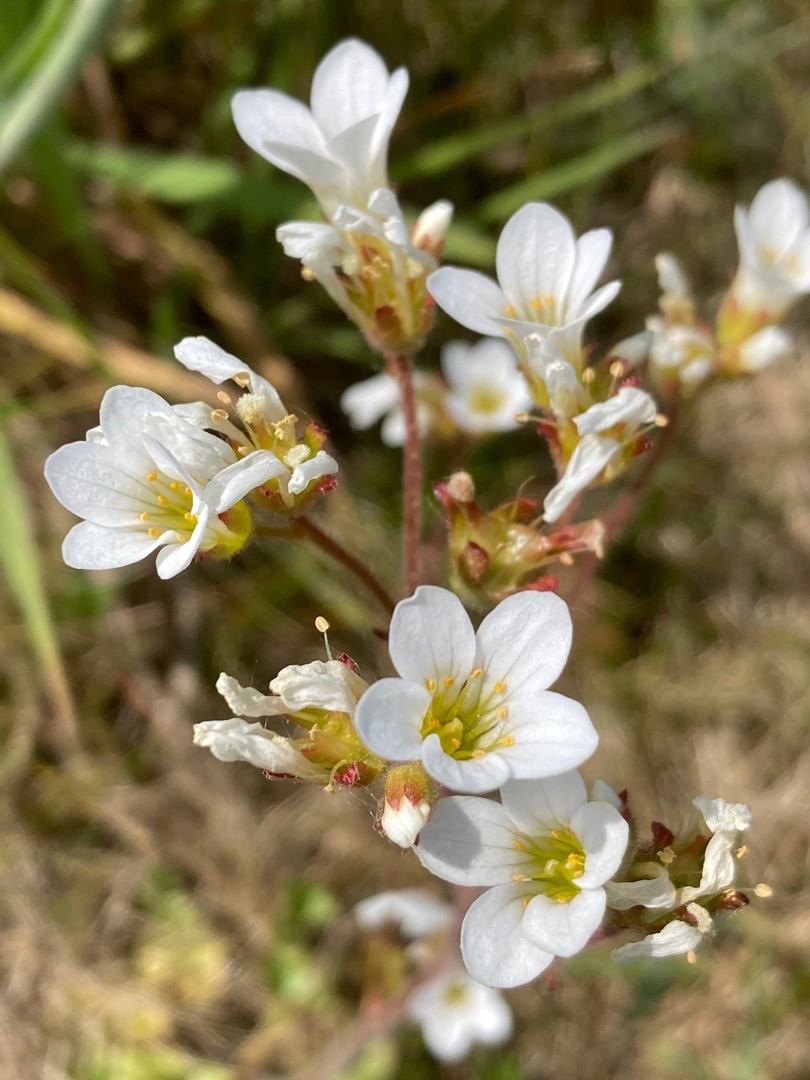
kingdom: Plantae
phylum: Tracheophyta
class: Magnoliopsida
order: Saxifragales
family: Saxifragaceae
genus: Saxifraga
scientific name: Saxifraga granulata
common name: Kornet stenbræk
